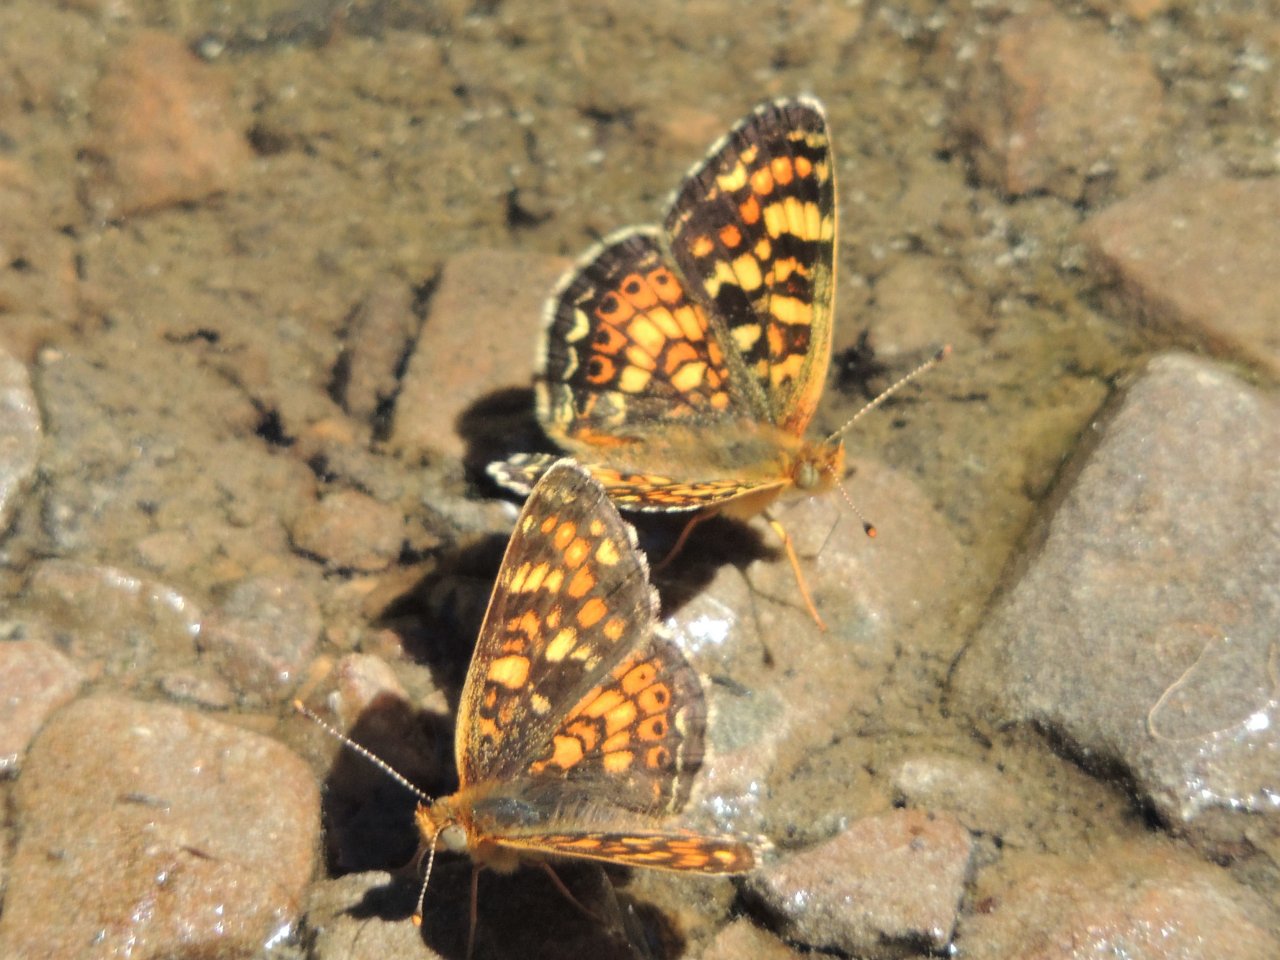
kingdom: Animalia
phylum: Arthropoda
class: Insecta
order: Lepidoptera
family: Nymphalidae
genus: Phyciodes
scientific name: Phyciodes tharos
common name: Field Crescent
